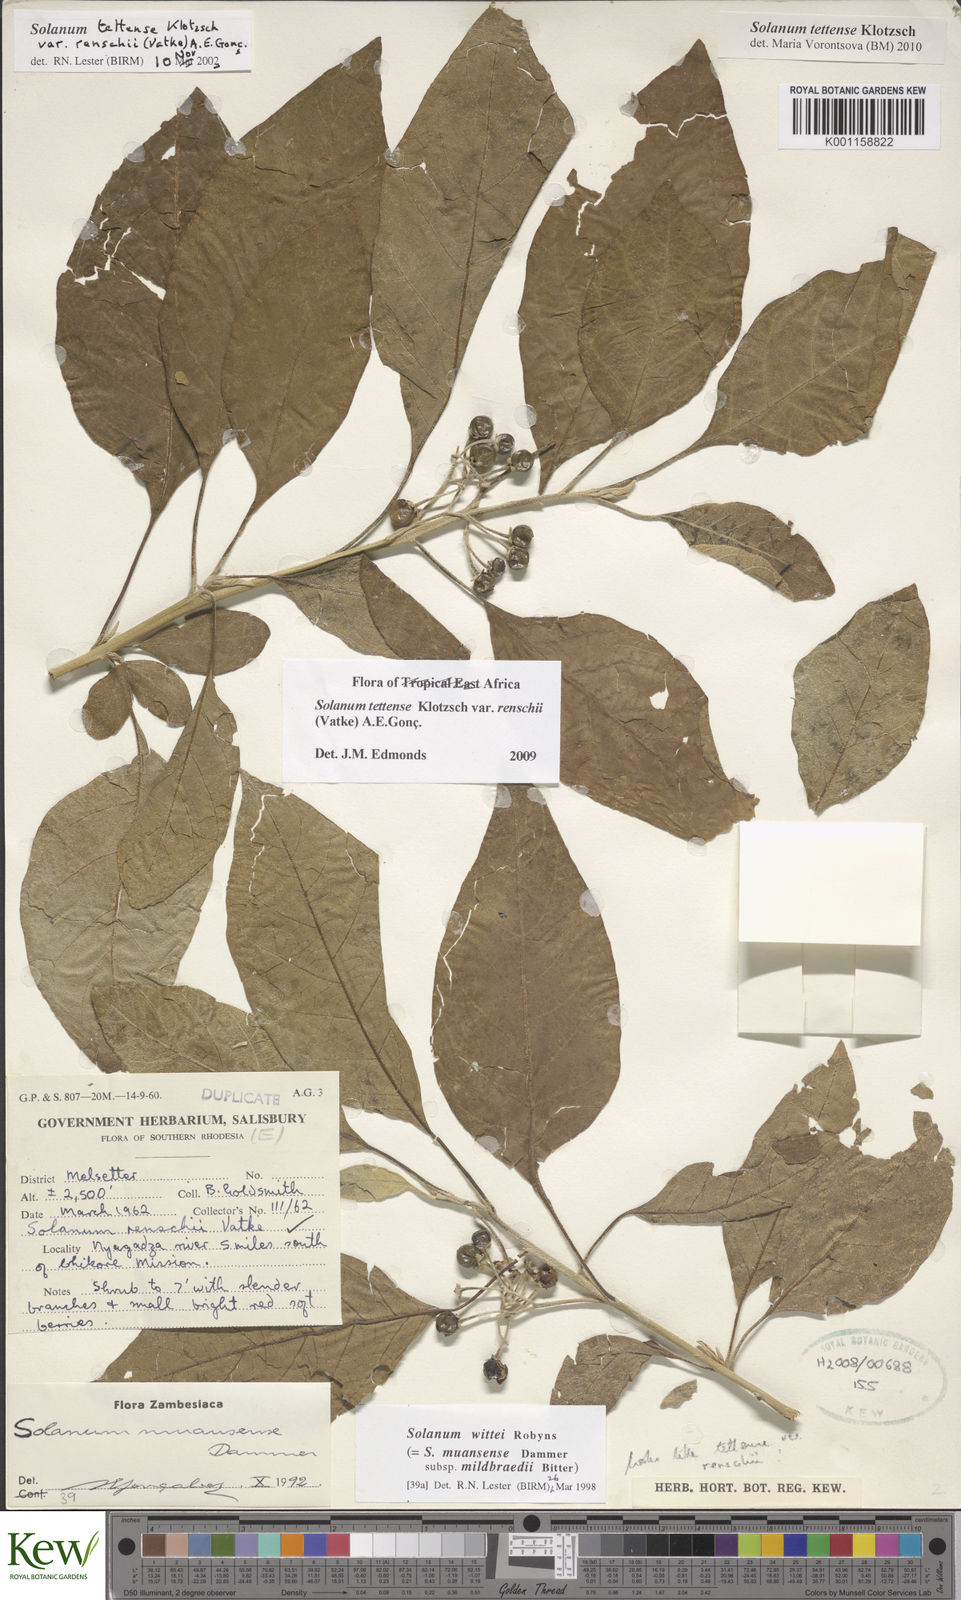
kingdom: Plantae
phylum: Tracheophyta
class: Magnoliopsida
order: Solanales
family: Solanaceae
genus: Solanum
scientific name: Solanum tettense
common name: Mozambique bitter apple
